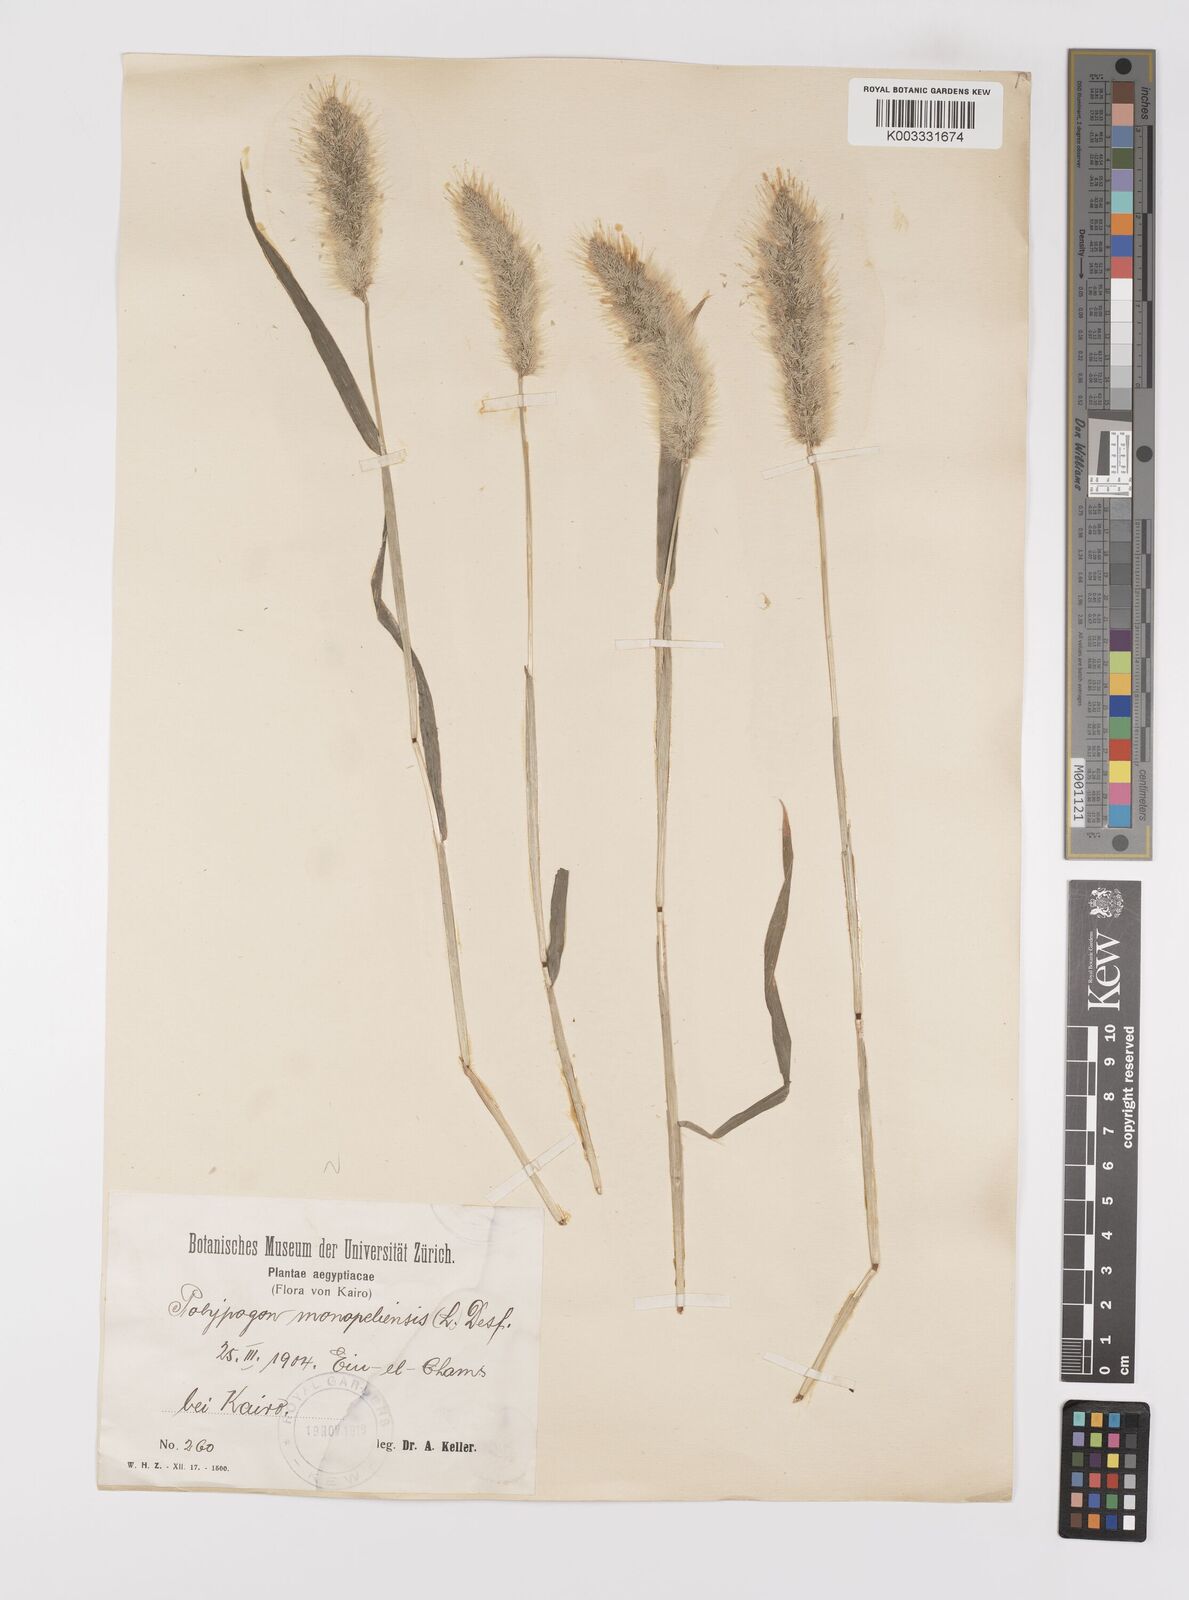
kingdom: Plantae
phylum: Tracheophyta
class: Liliopsida
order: Poales
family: Poaceae
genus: Polypogon
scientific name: Polypogon monspeliensis
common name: Annual rabbitsfoot grass
